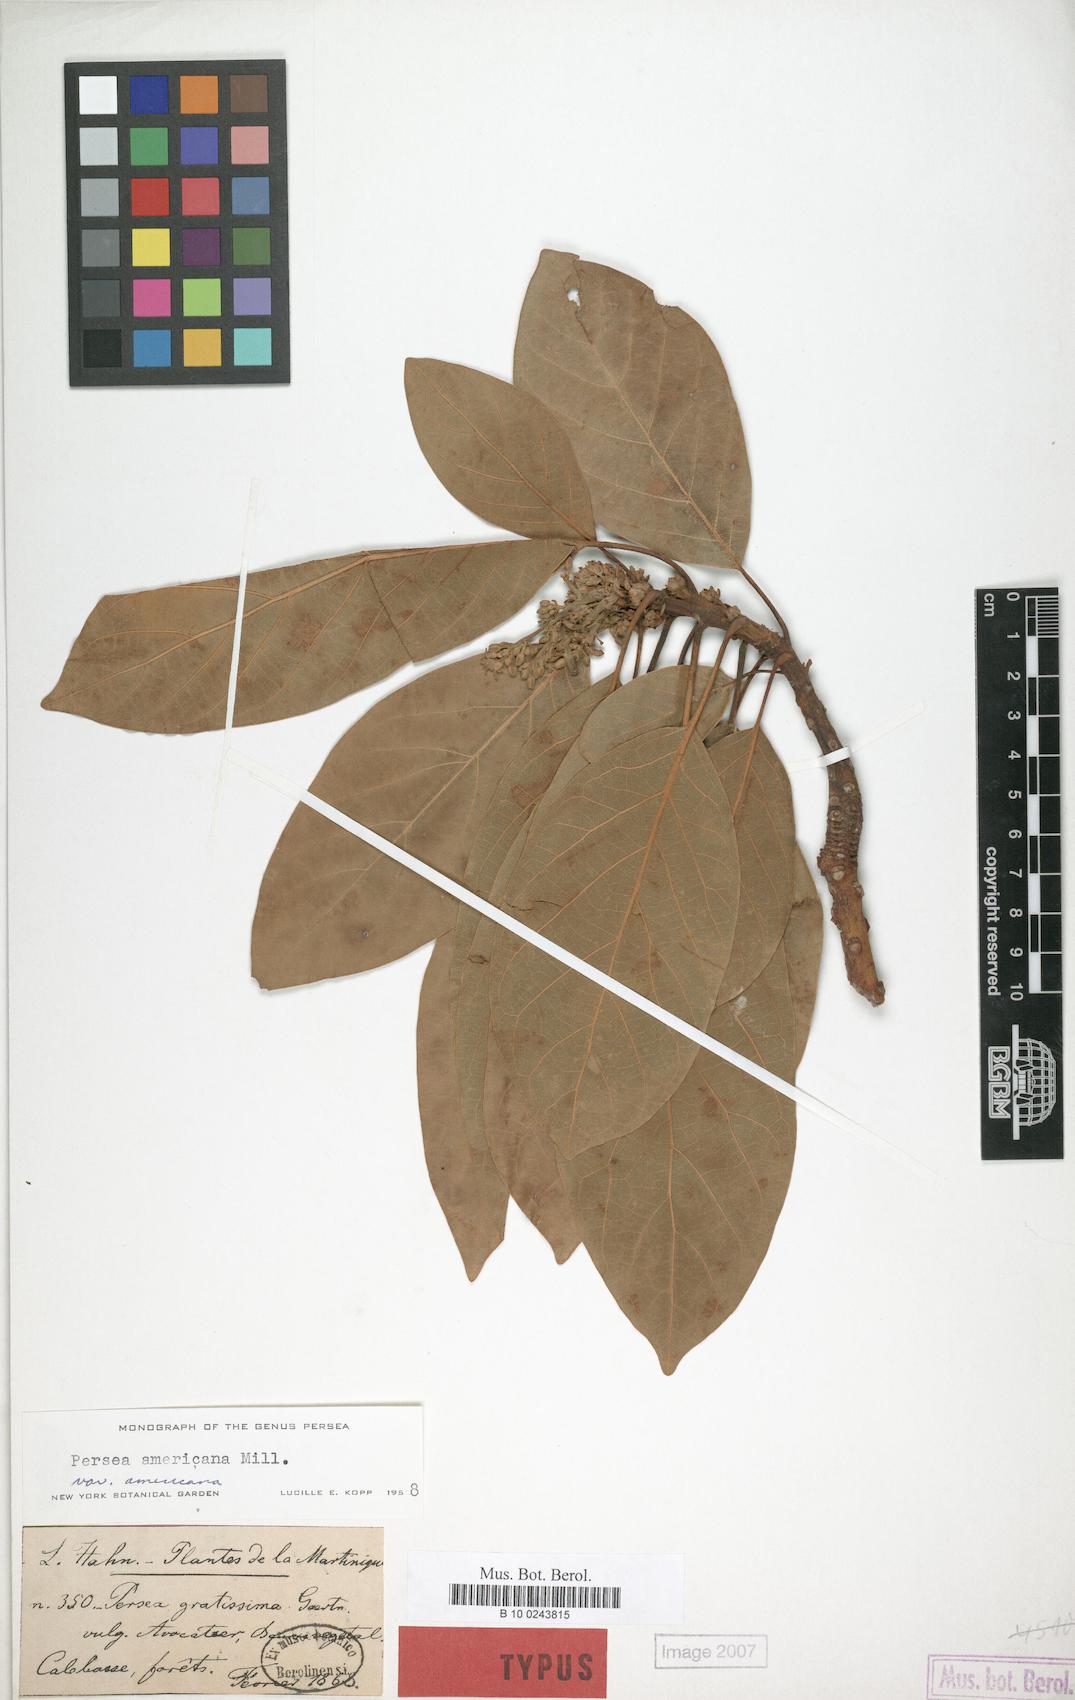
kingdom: Plantae
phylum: Tracheophyta
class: Magnoliopsida
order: Laurales
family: Lauraceae
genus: Persea
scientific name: Persea americana
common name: Avocado
